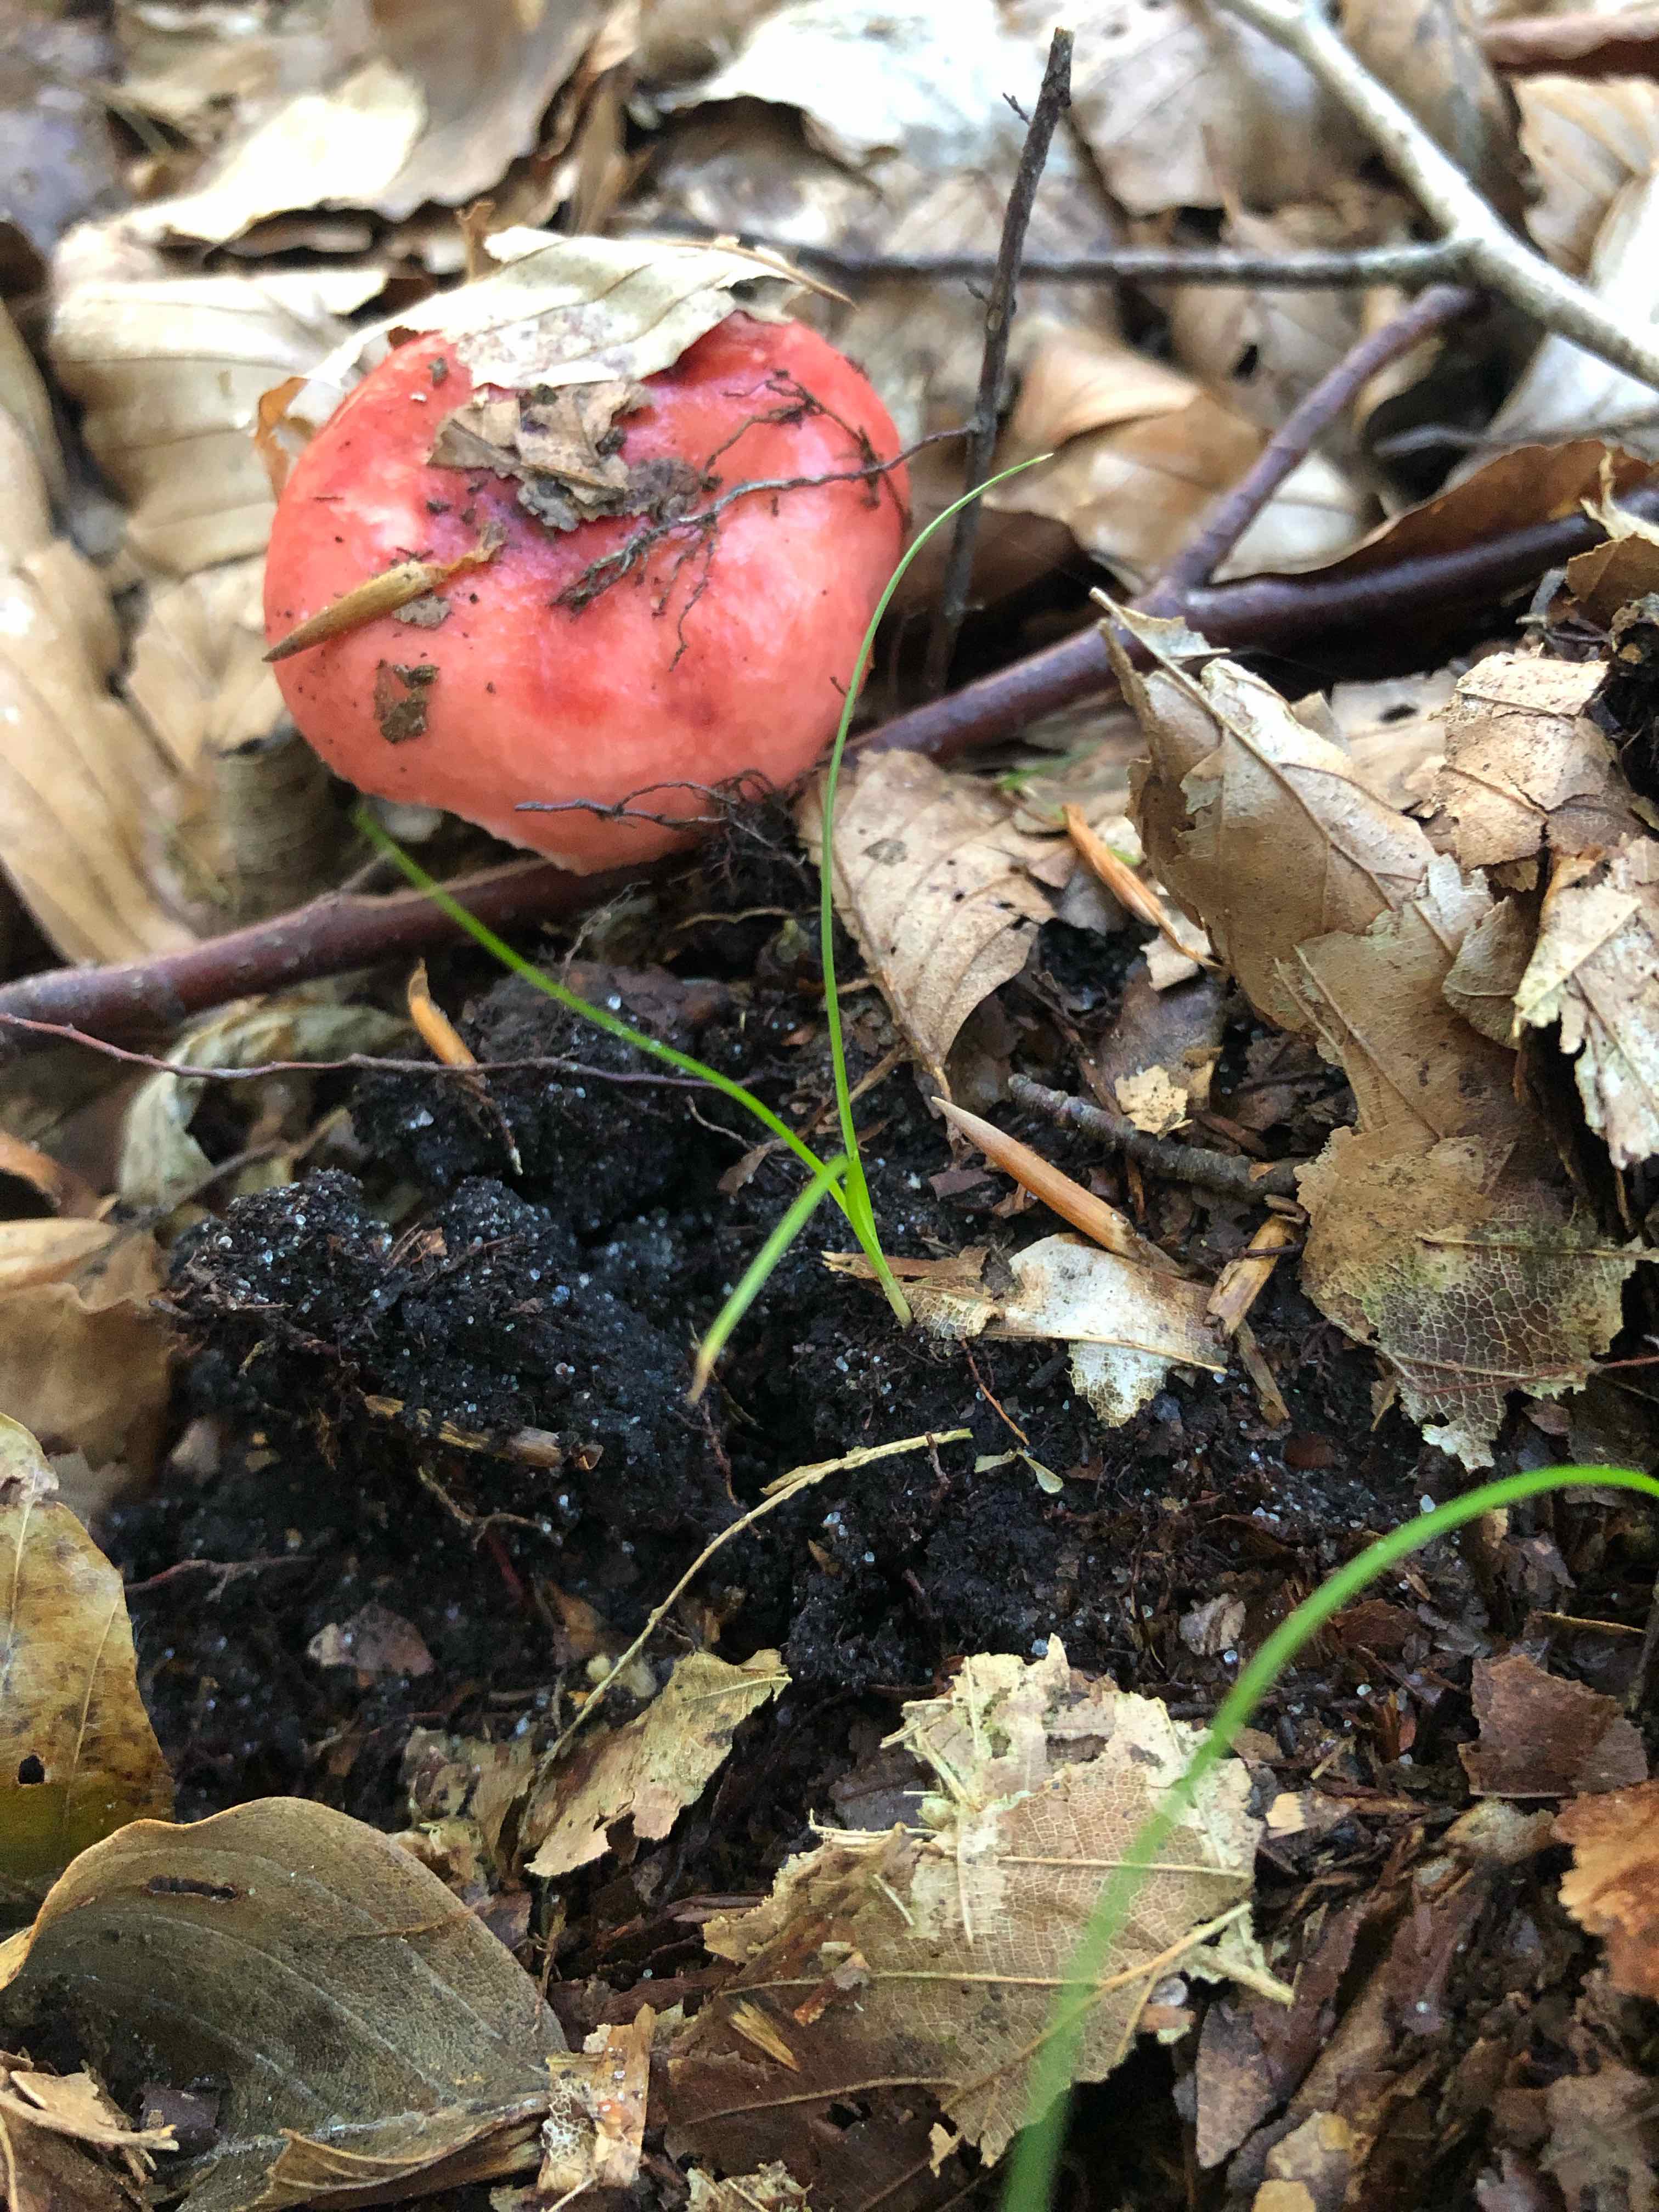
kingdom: Fungi
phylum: Basidiomycota
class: Agaricomycetes
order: Russulales
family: Russulaceae
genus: Russula
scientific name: Russula nobilis
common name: lille gift-skørhat
